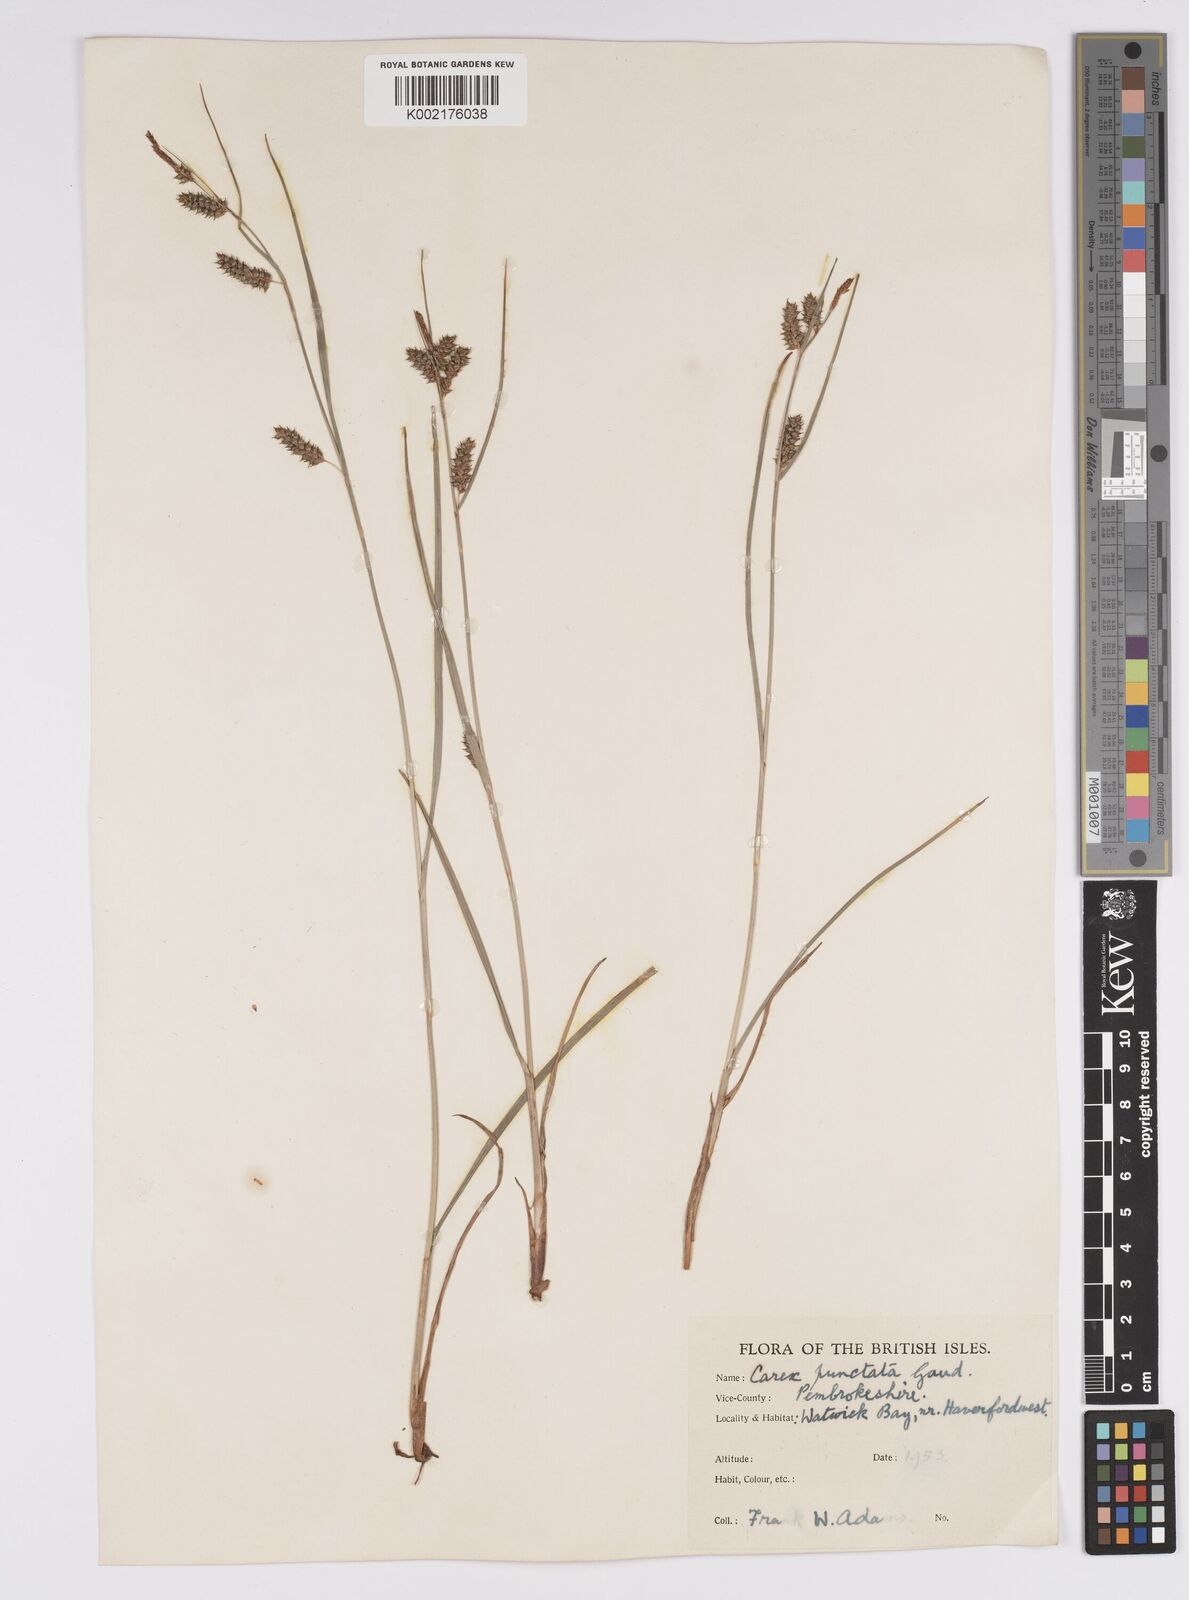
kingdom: Plantae
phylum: Tracheophyta
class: Liliopsida
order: Poales
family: Cyperaceae
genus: Carex
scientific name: Carex punctata
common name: Dotted sedge
